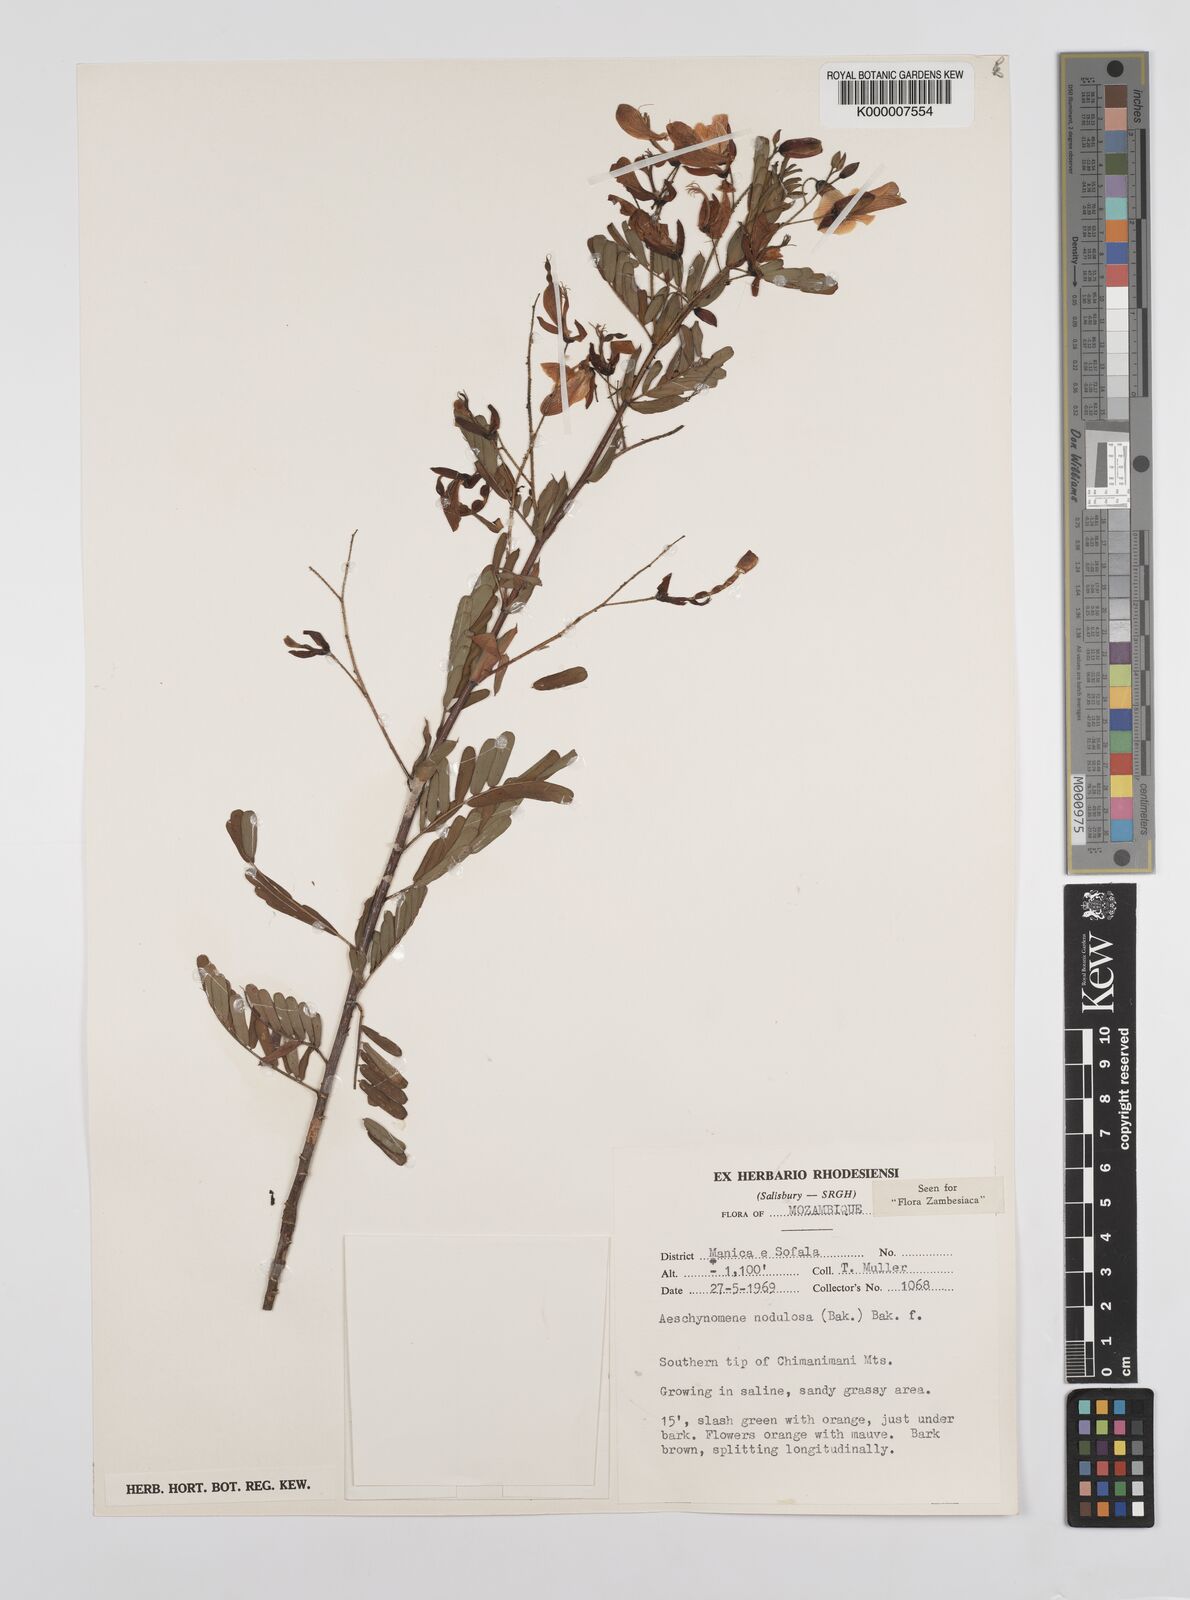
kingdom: Plantae
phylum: Tracheophyta
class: Magnoliopsida
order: Fabales
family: Fabaceae
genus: Aeschynomene
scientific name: Aeschynomene nodulosa
